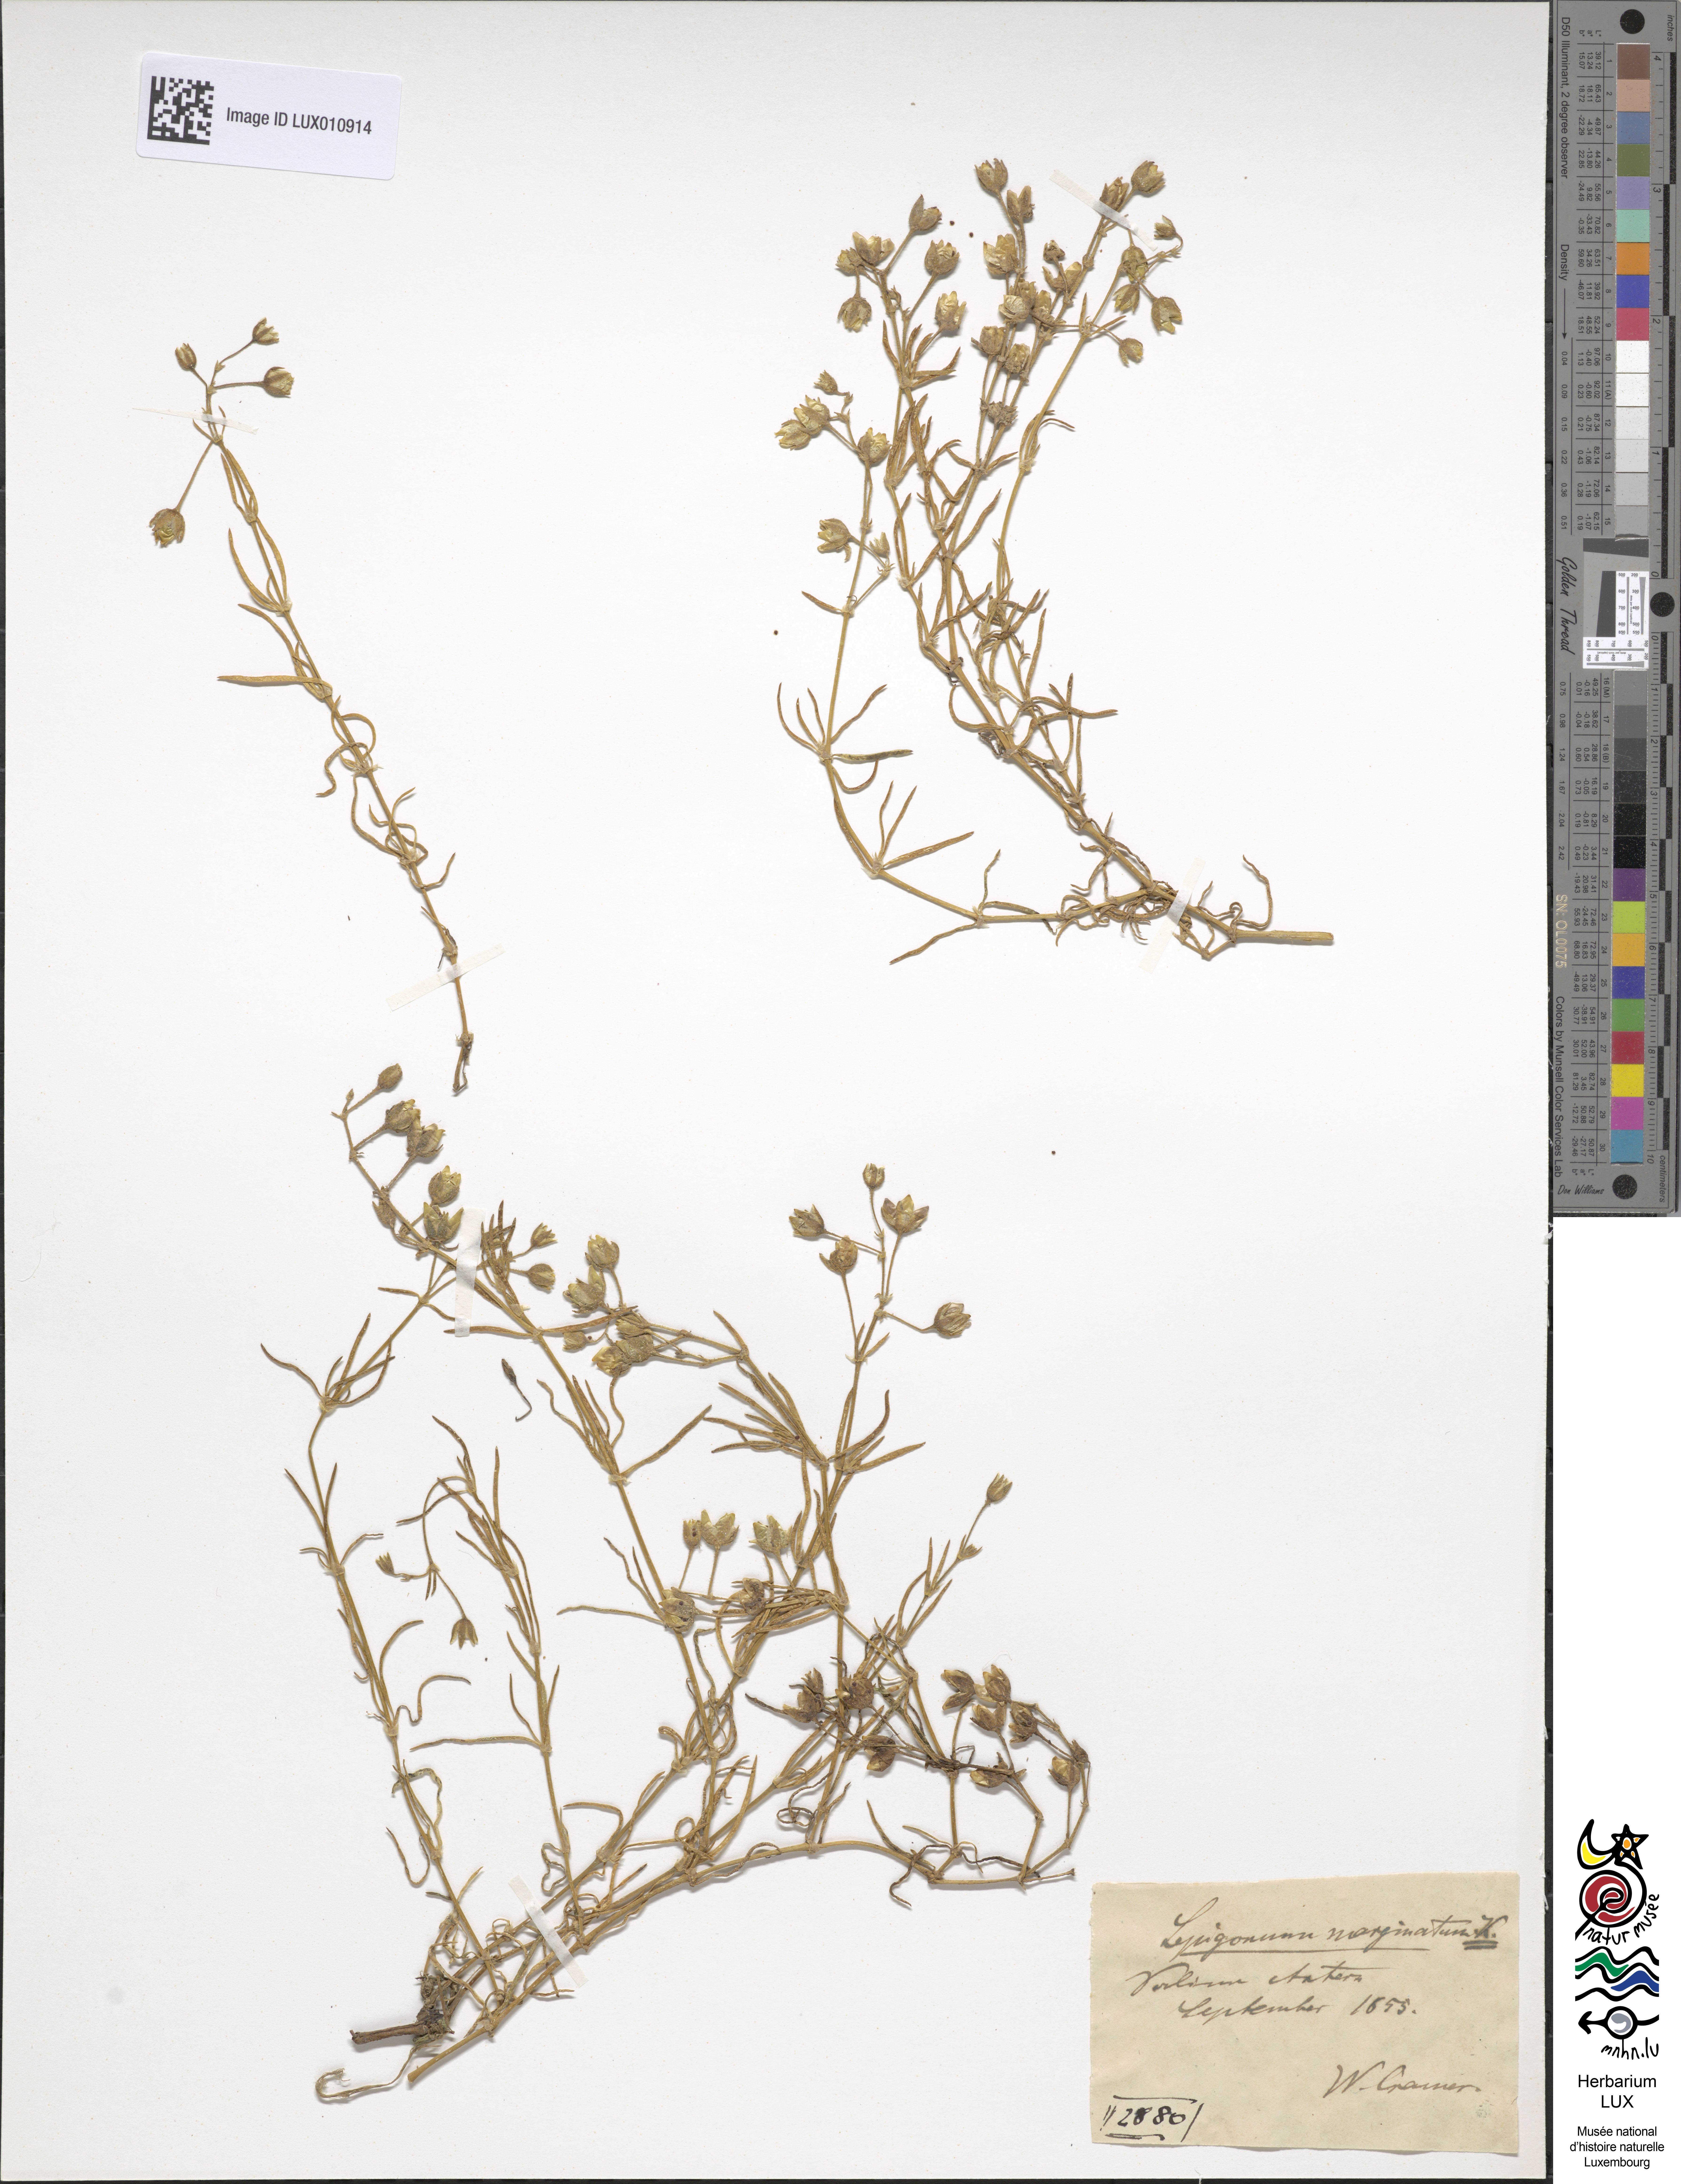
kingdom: Plantae
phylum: Tracheophyta
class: Magnoliopsida
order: Caryophyllales
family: Caryophyllaceae
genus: Spergularia
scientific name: Spergularia media
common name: Greater sea-spurrey
